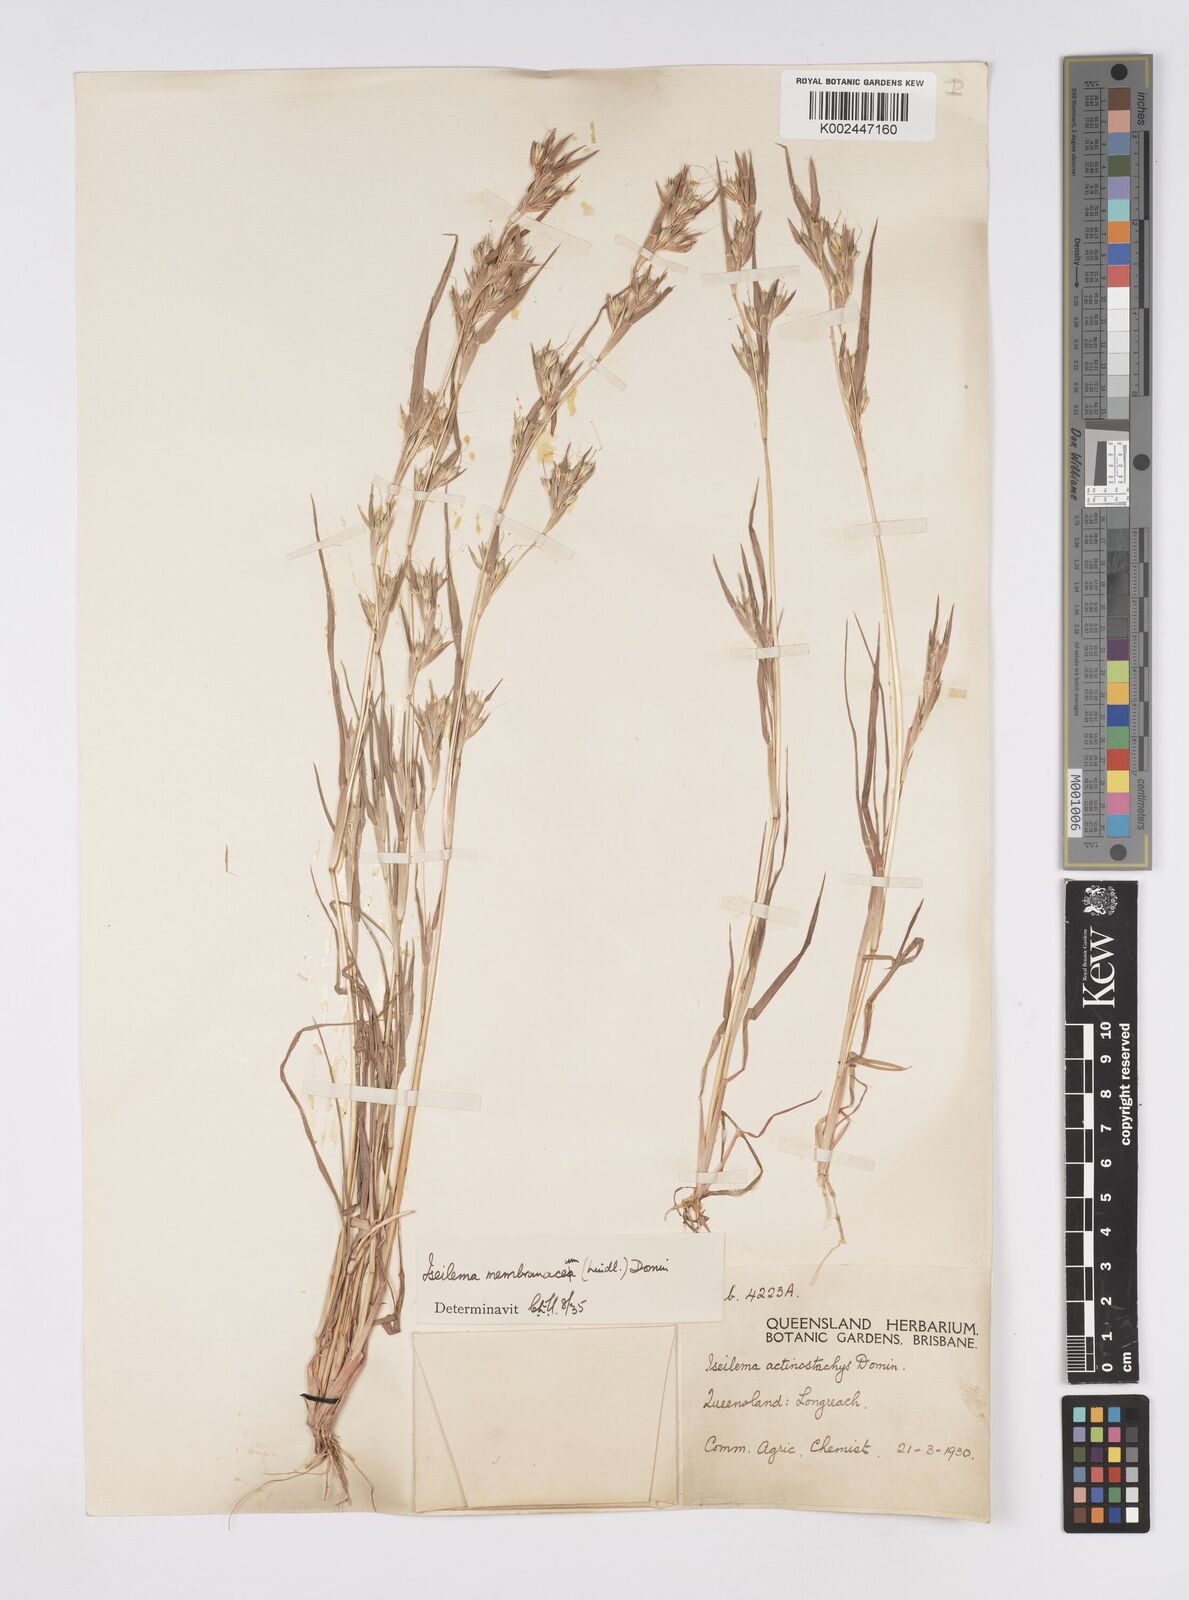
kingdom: Plantae
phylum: Tracheophyta
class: Liliopsida
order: Poales
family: Poaceae
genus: Iseilema
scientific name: Iseilema membranaceum
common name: Small flinders grass
